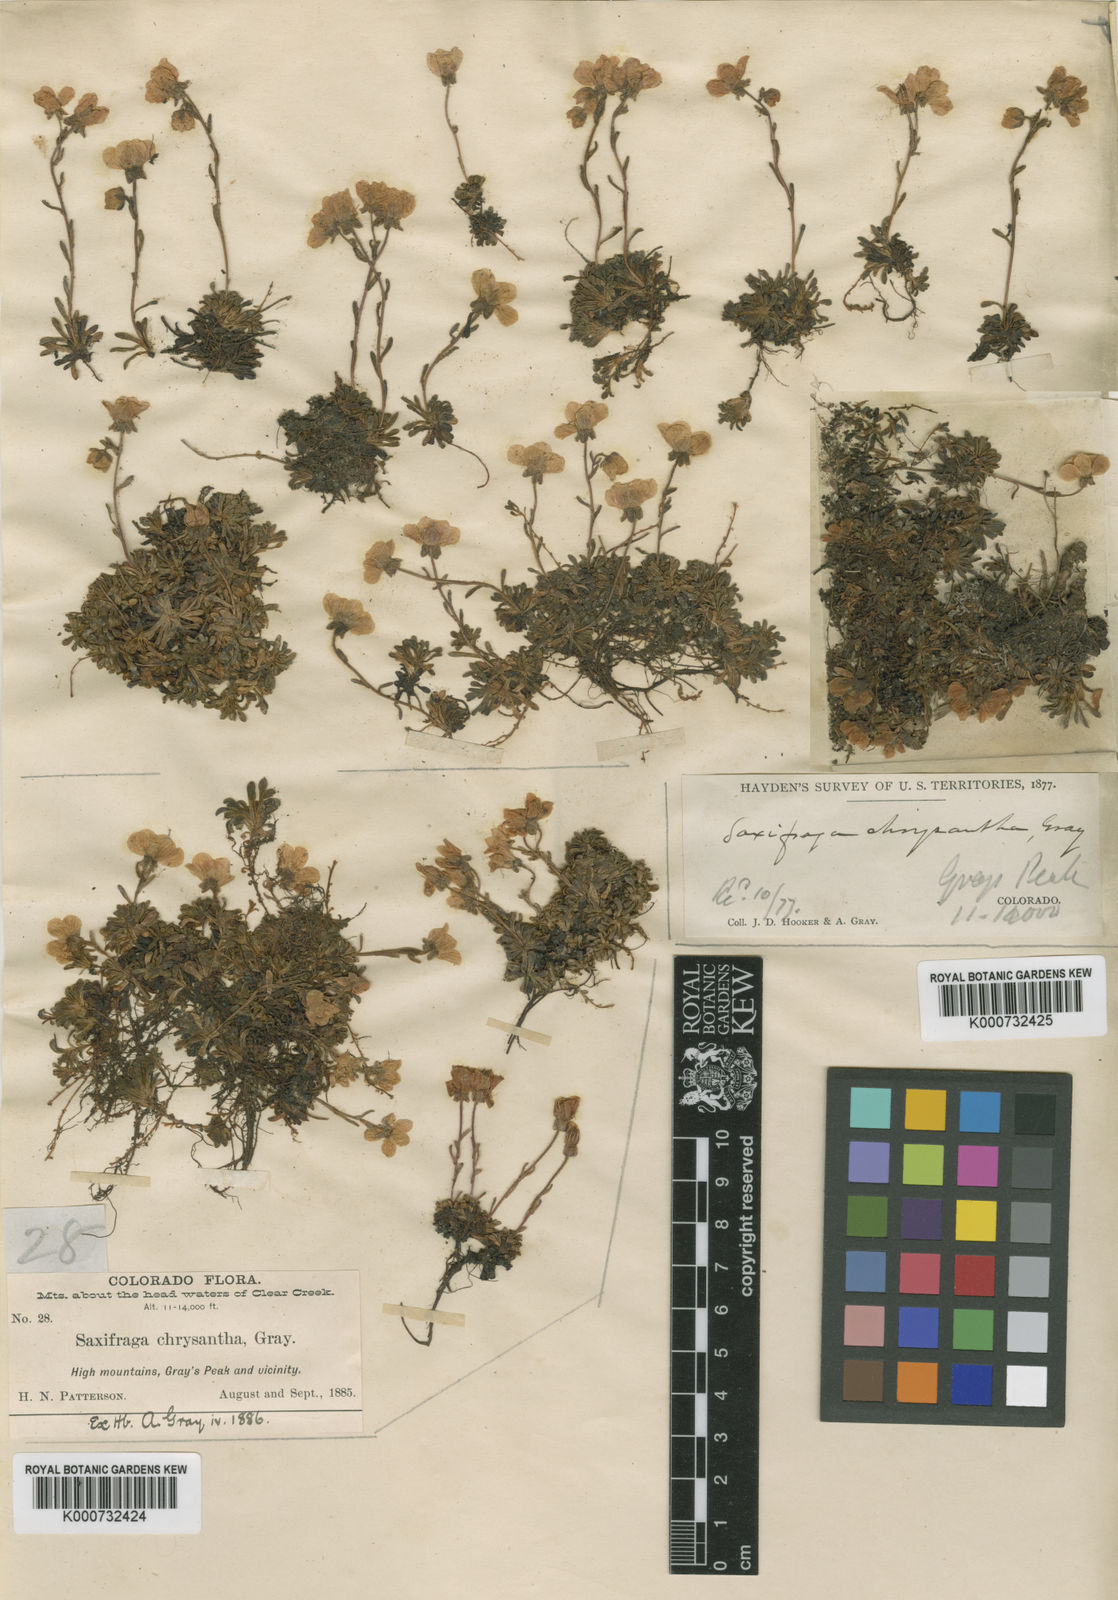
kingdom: Plantae
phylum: Tracheophyta
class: Magnoliopsida
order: Saxifragales
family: Saxifragaceae
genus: Saxifraga
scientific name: Saxifraga
